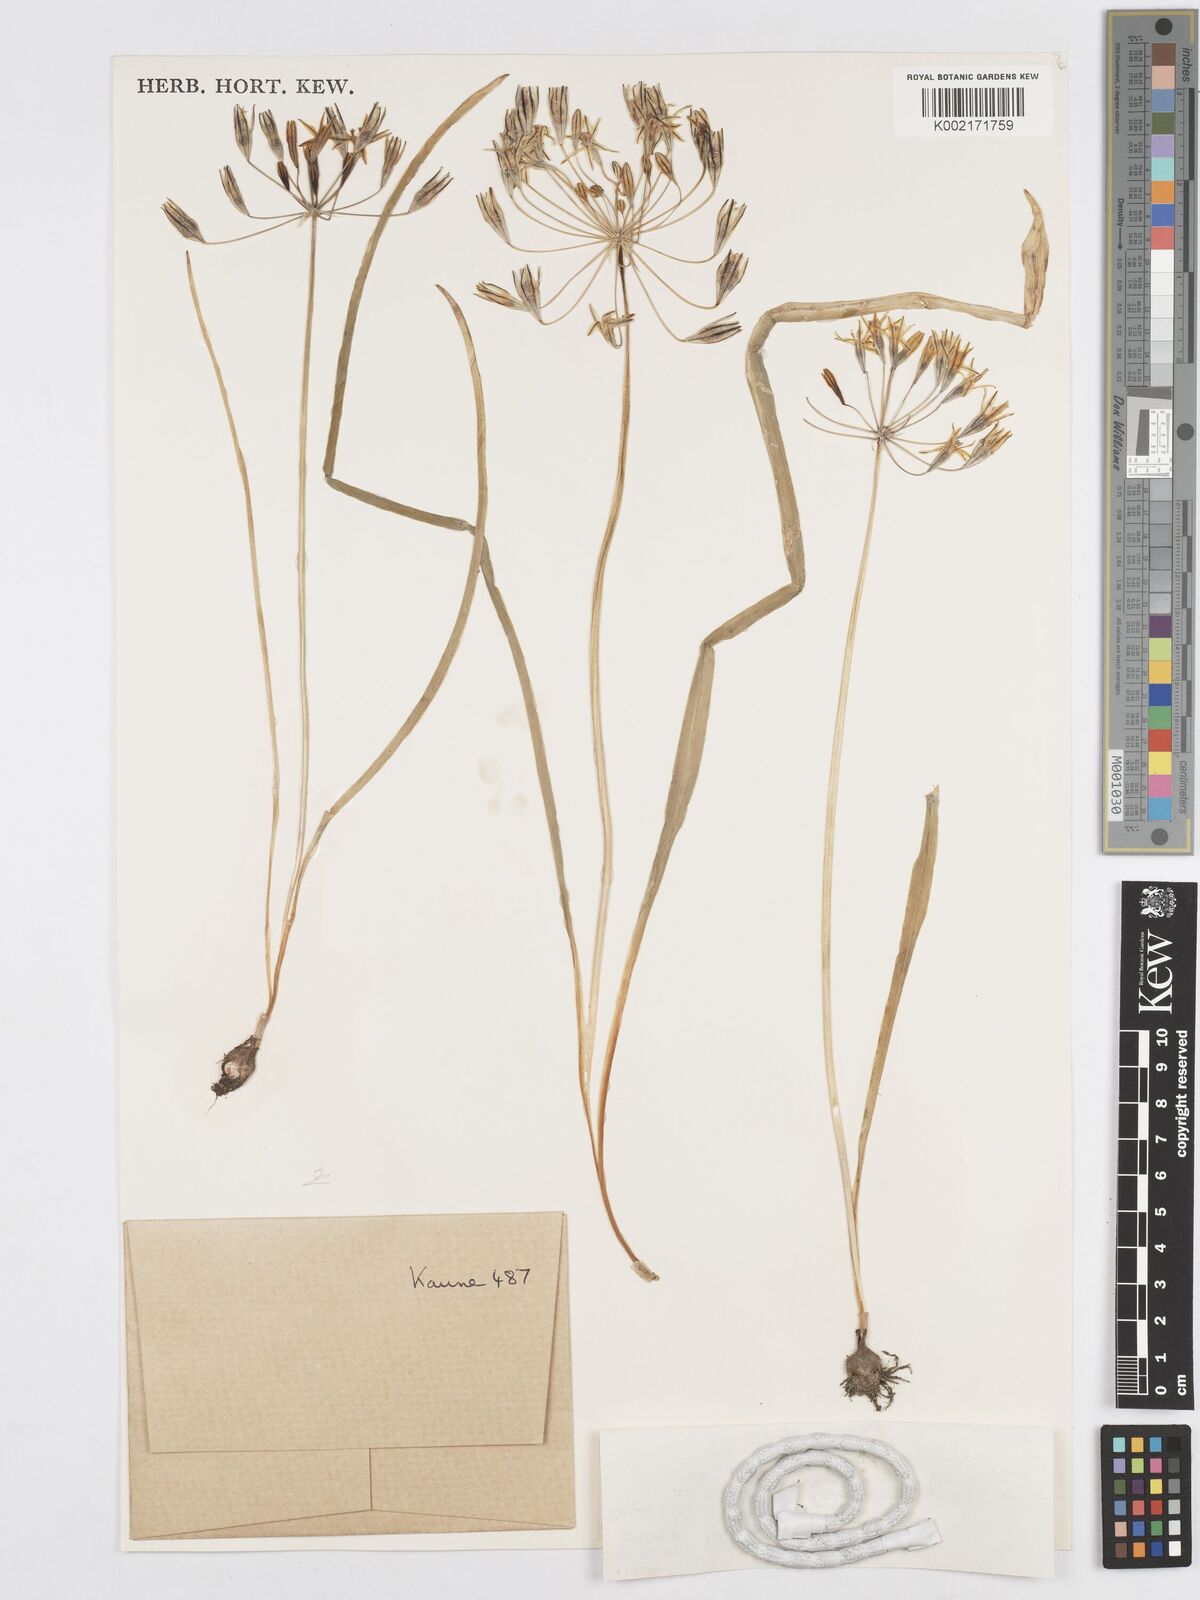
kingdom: Plantae
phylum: Tracheophyta
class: Liliopsida
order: Asparagales
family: Asparagaceae
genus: Triteleia
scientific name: Triteleia ixioides
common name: Yellow-brodiaea
